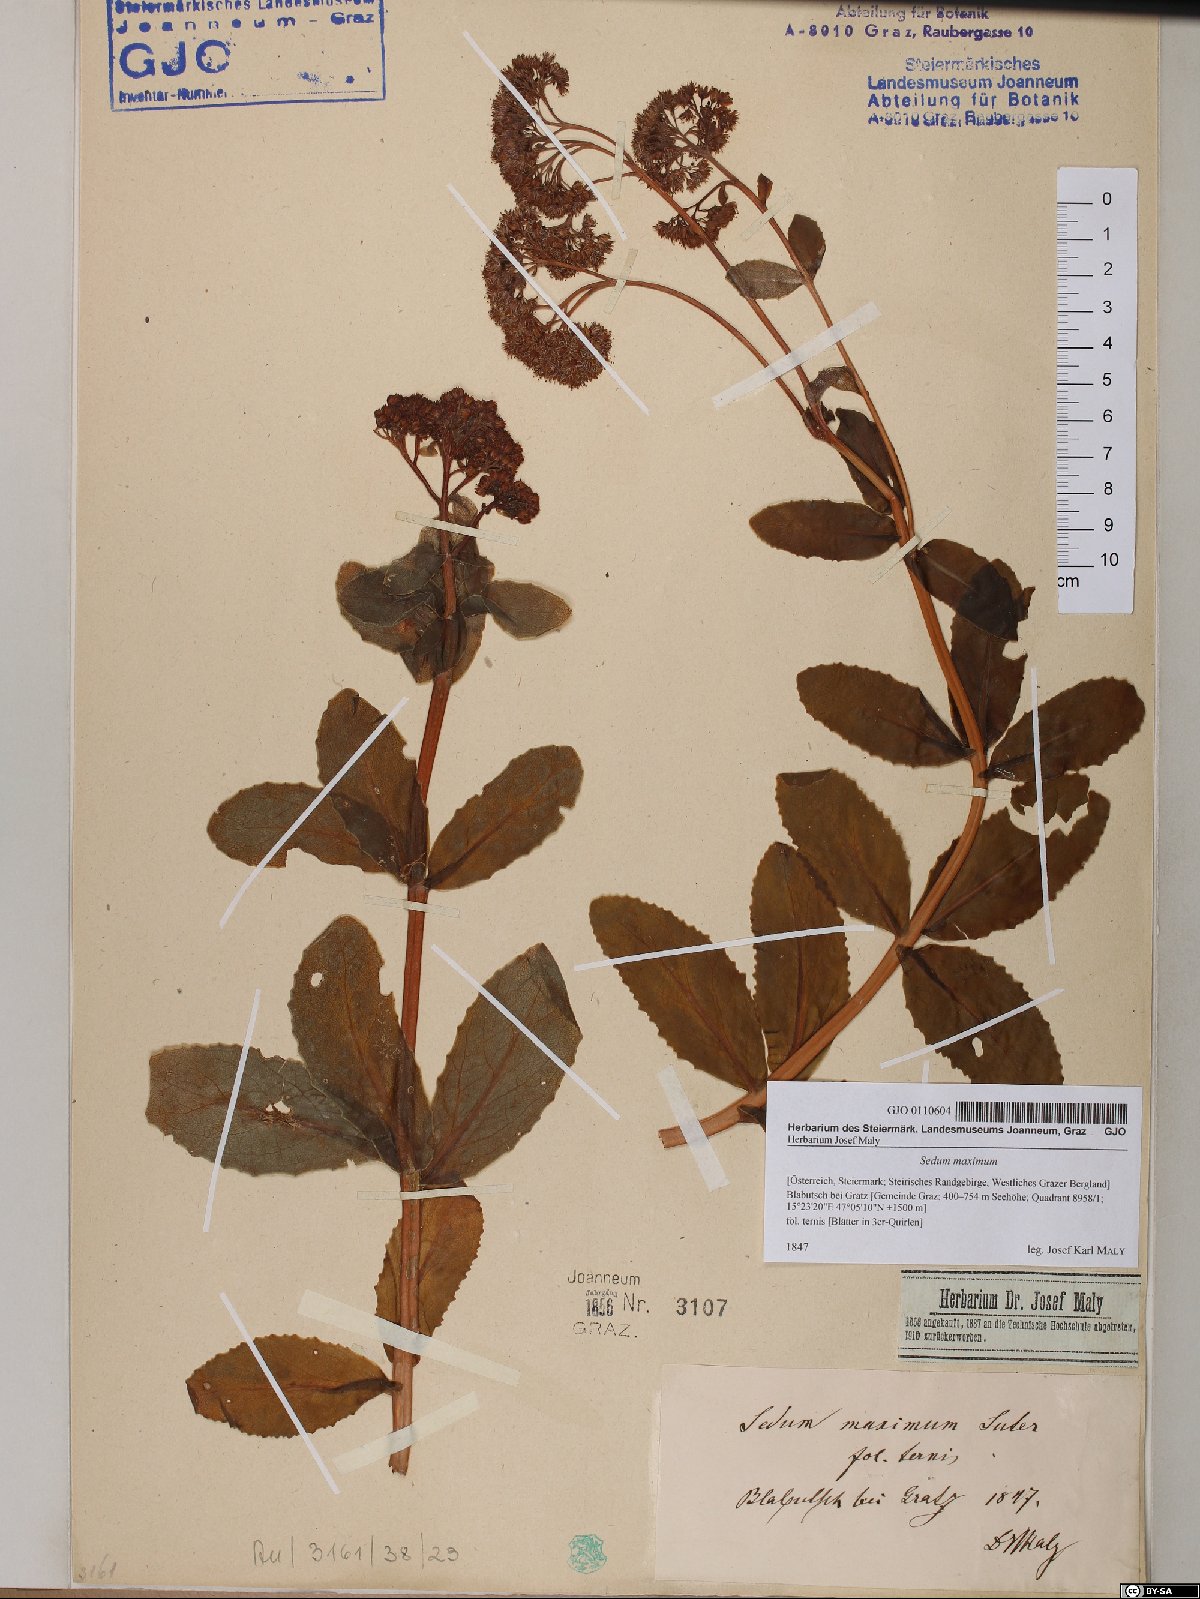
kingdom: Plantae
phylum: Tracheophyta
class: Magnoliopsida
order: Saxifragales
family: Crassulaceae
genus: Hylotelephium
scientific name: Hylotelephium maximum
